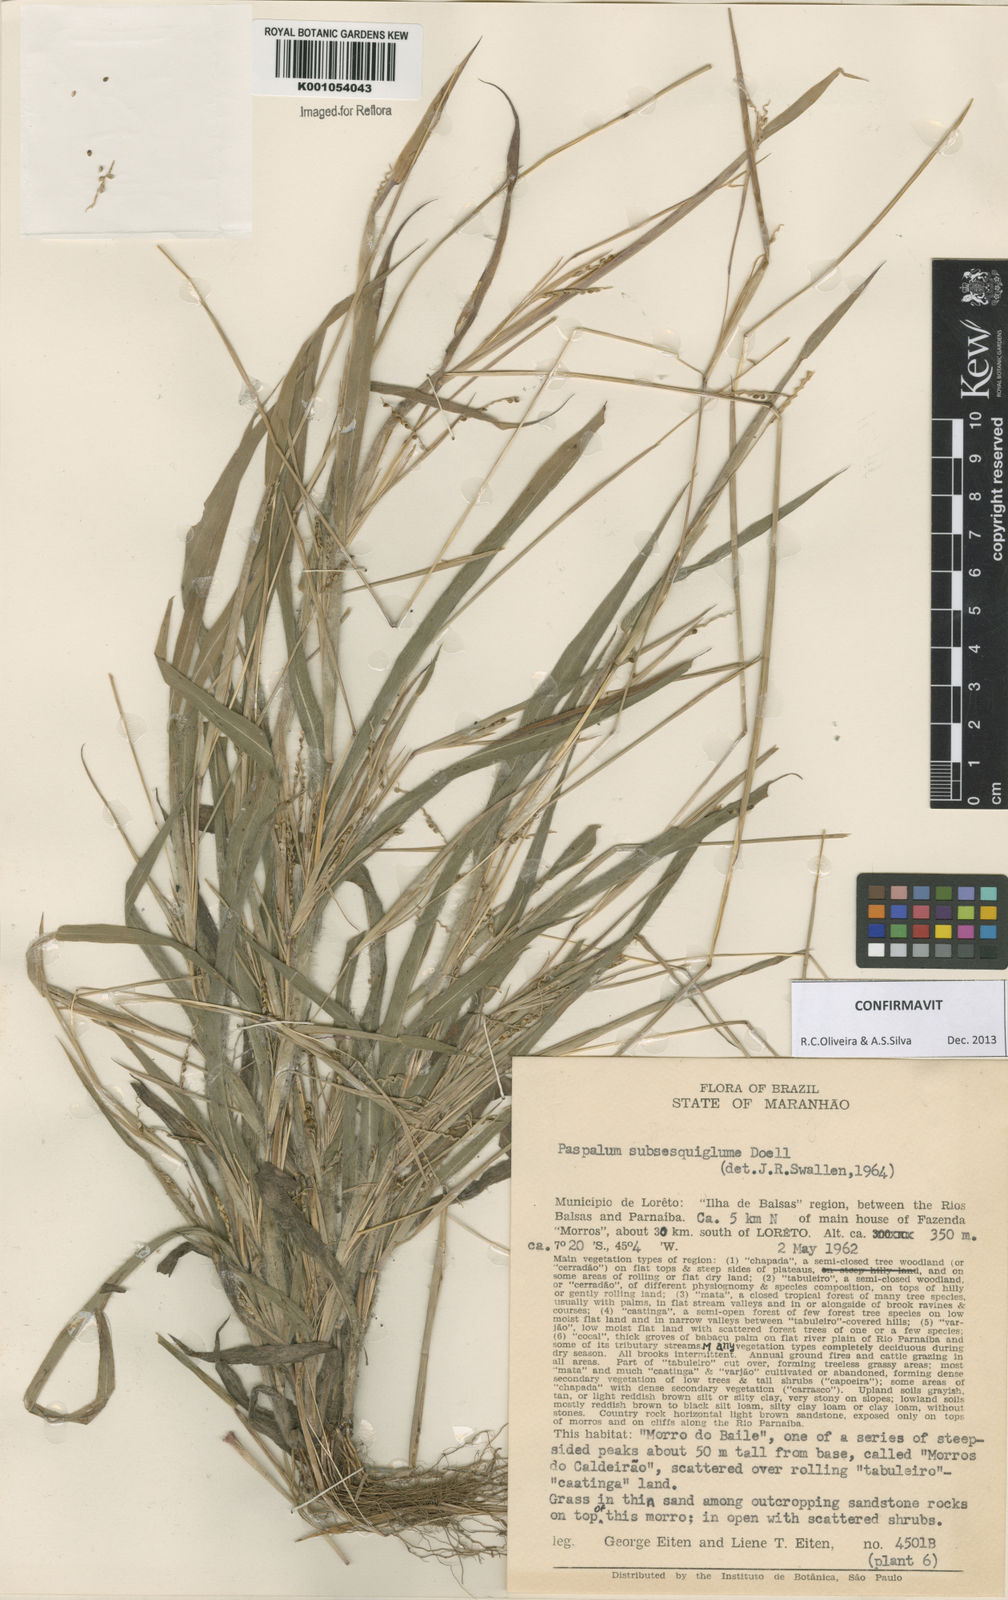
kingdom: Plantae
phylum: Tracheophyta
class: Liliopsida
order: Poales
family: Poaceae
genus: Paspalum
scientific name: Paspalum
